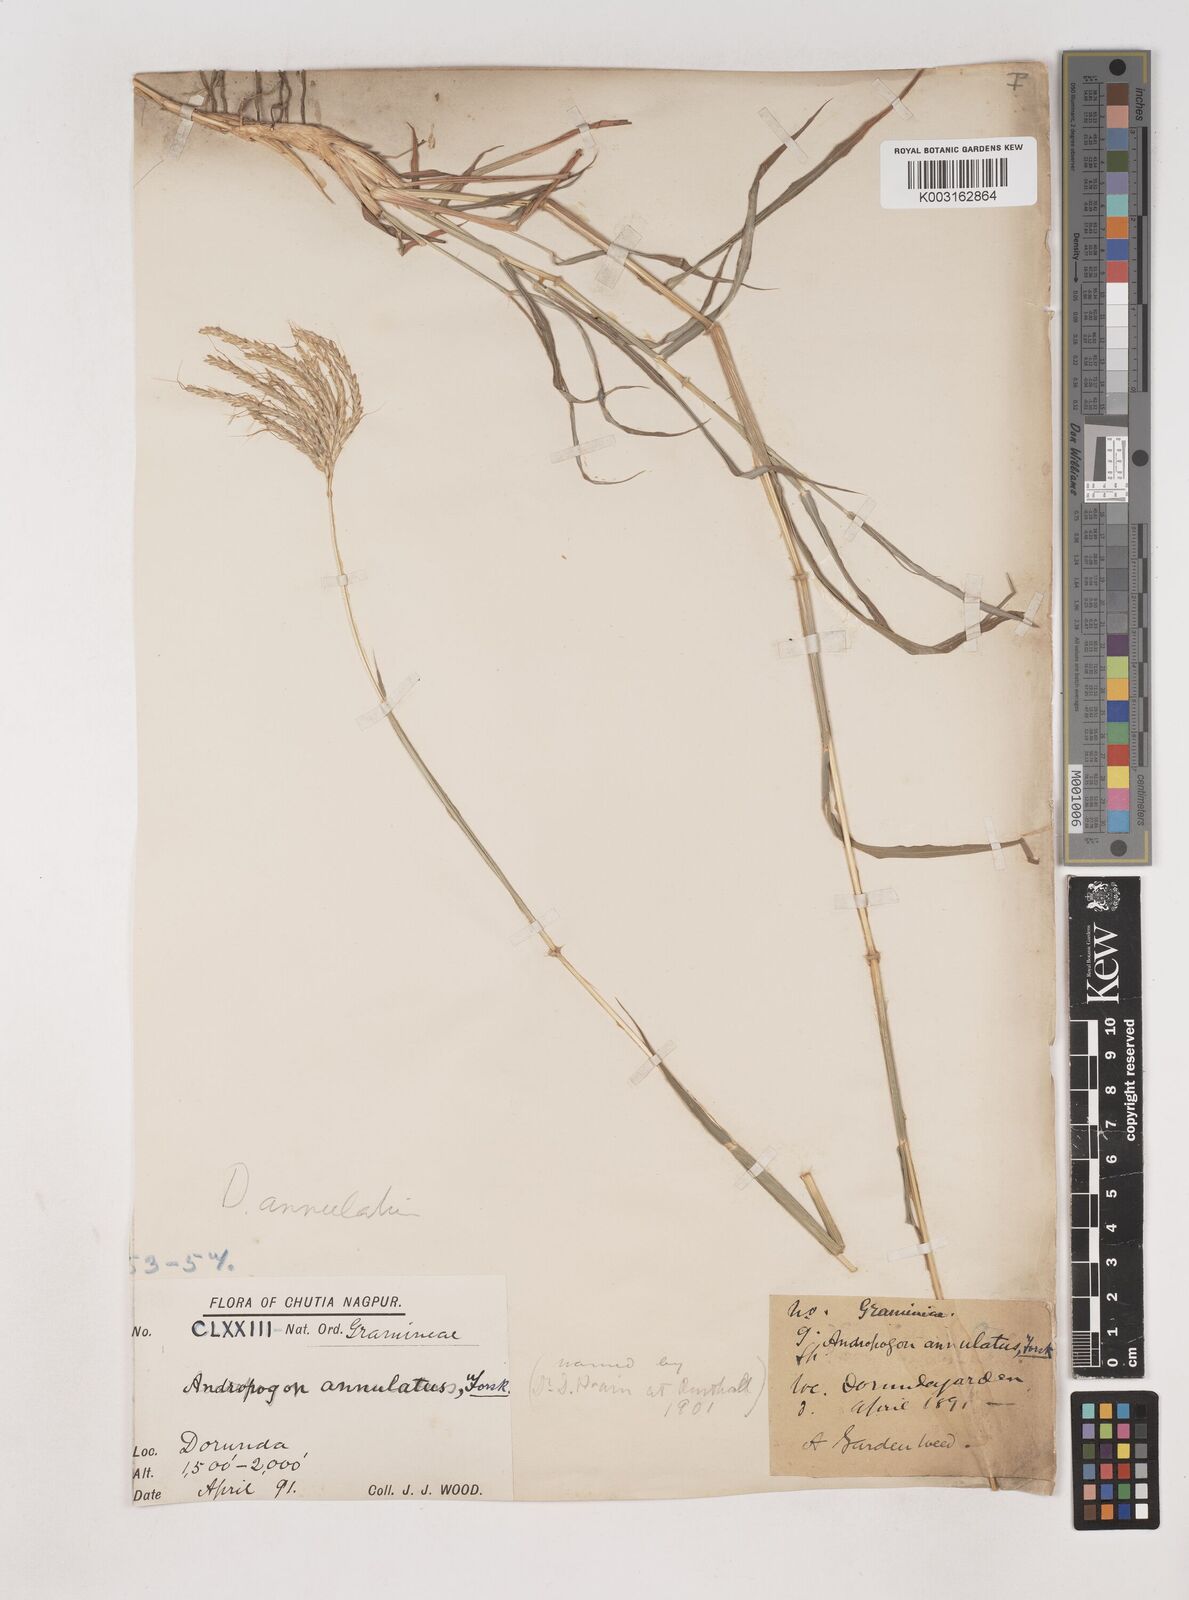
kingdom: Plantae
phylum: Tracheophyta
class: Liliopsida
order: Poales
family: Poaceae
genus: Dichanthium
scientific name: Dichanthium annulatum
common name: Kleberg's bluestem
